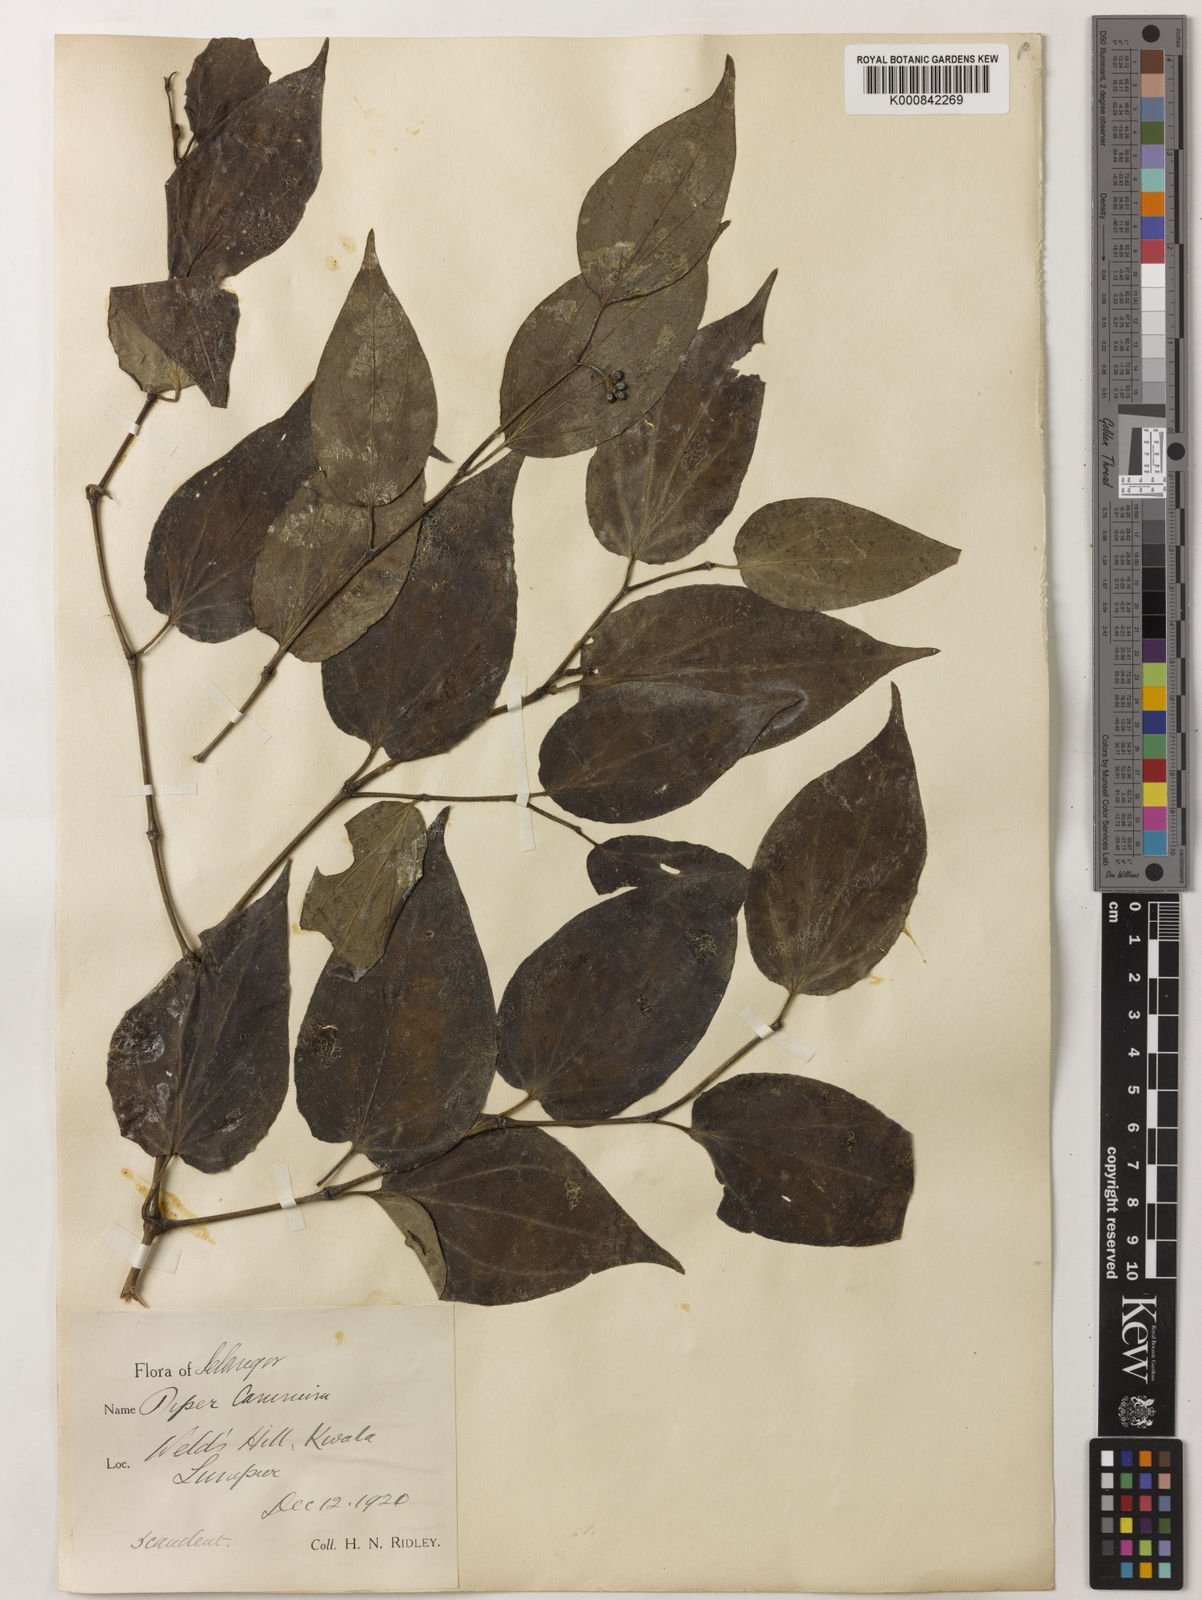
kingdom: Plantae
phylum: Tracheophyta
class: Magnoliopsida
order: Piperales
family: Piperaceae
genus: Piper
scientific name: Piper lanatum
